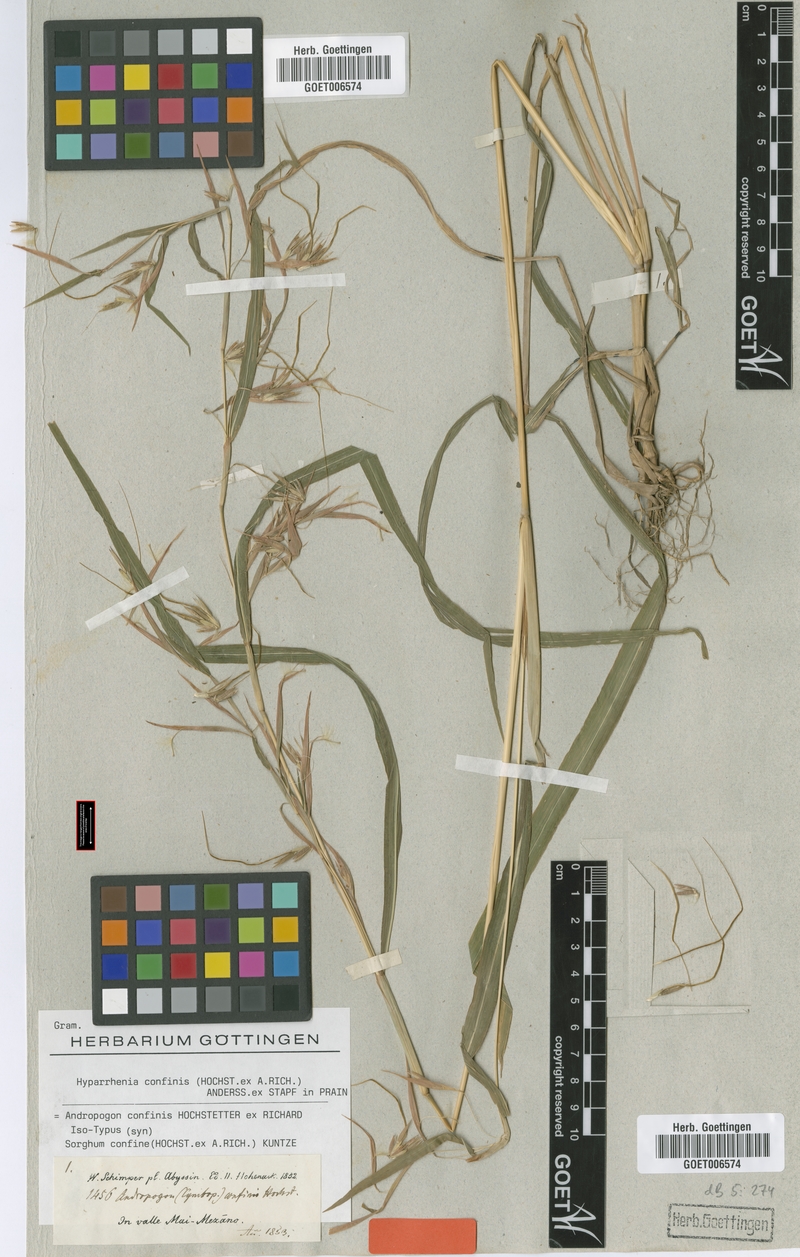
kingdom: Plantae
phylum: Tracheophyta
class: Liliopsida
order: Poales
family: Poaceae
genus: Hyparrhenia
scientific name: Hyparrhenia confinis
